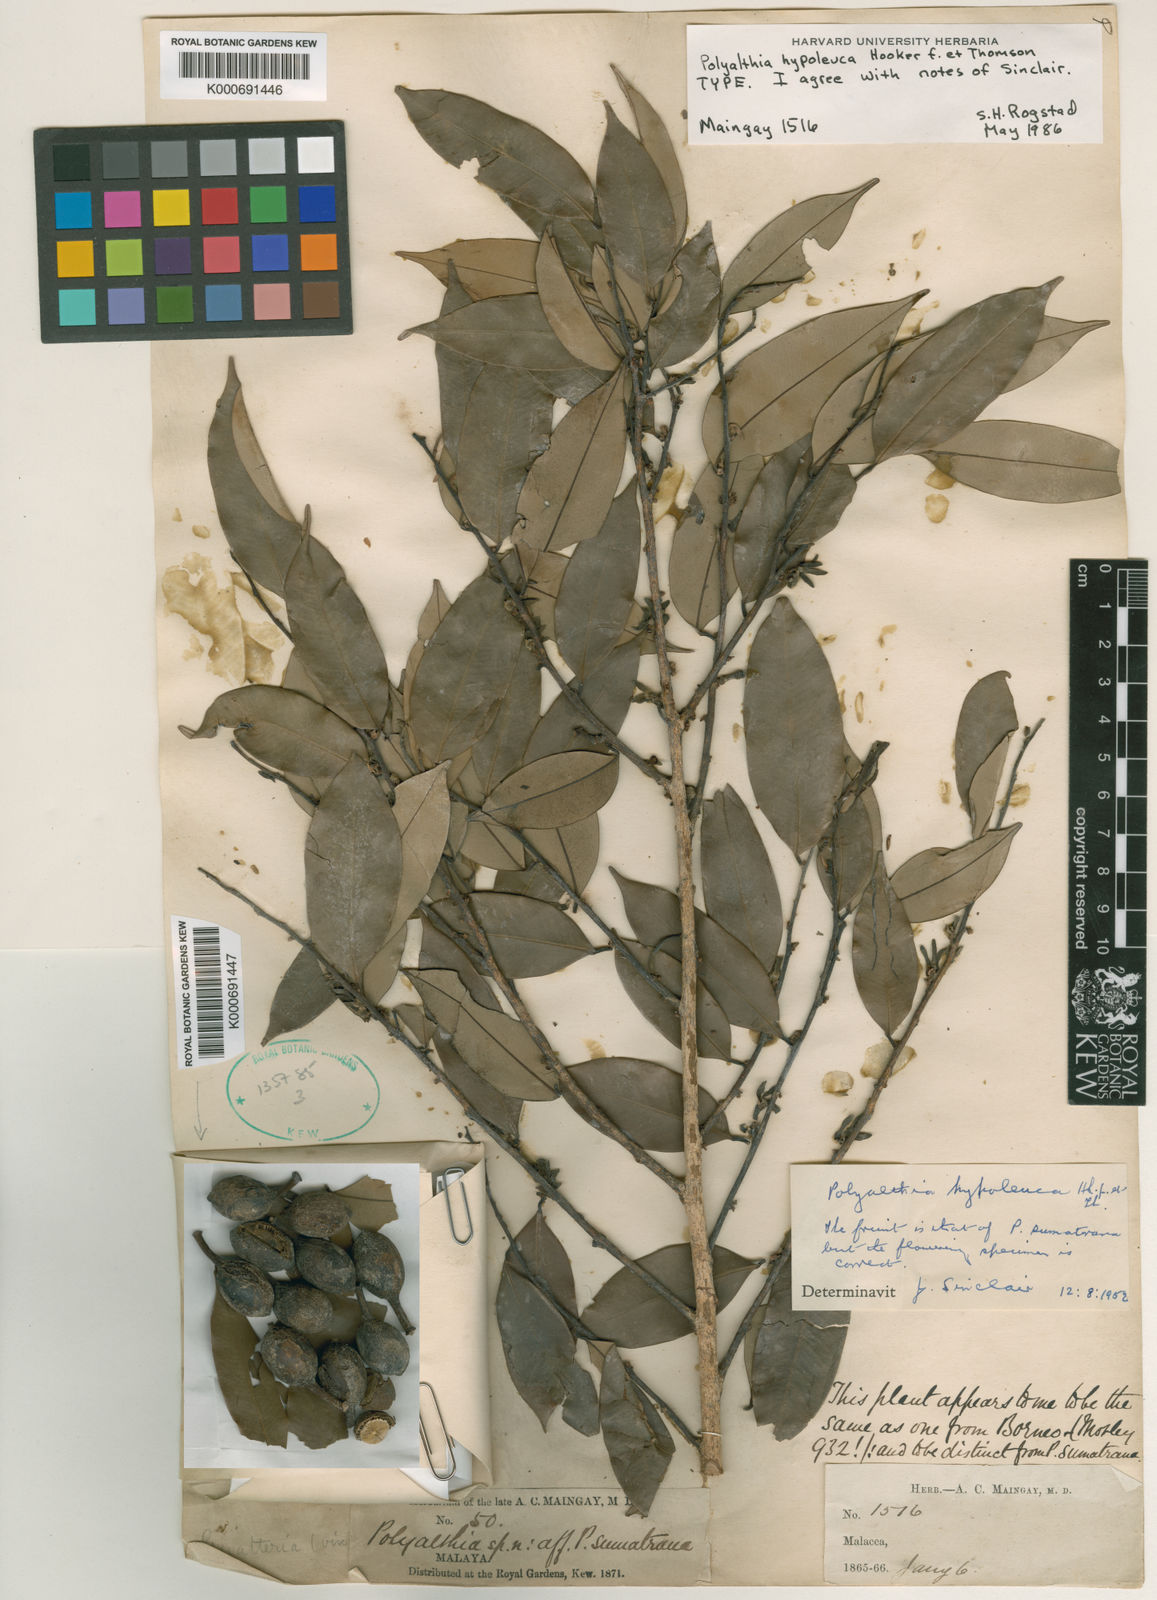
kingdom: Plantae
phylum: Tracheophyta
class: Magnoliopsida
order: Magnoliales
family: Annonaceae
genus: Maasia
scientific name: Maasia hypoleuca
